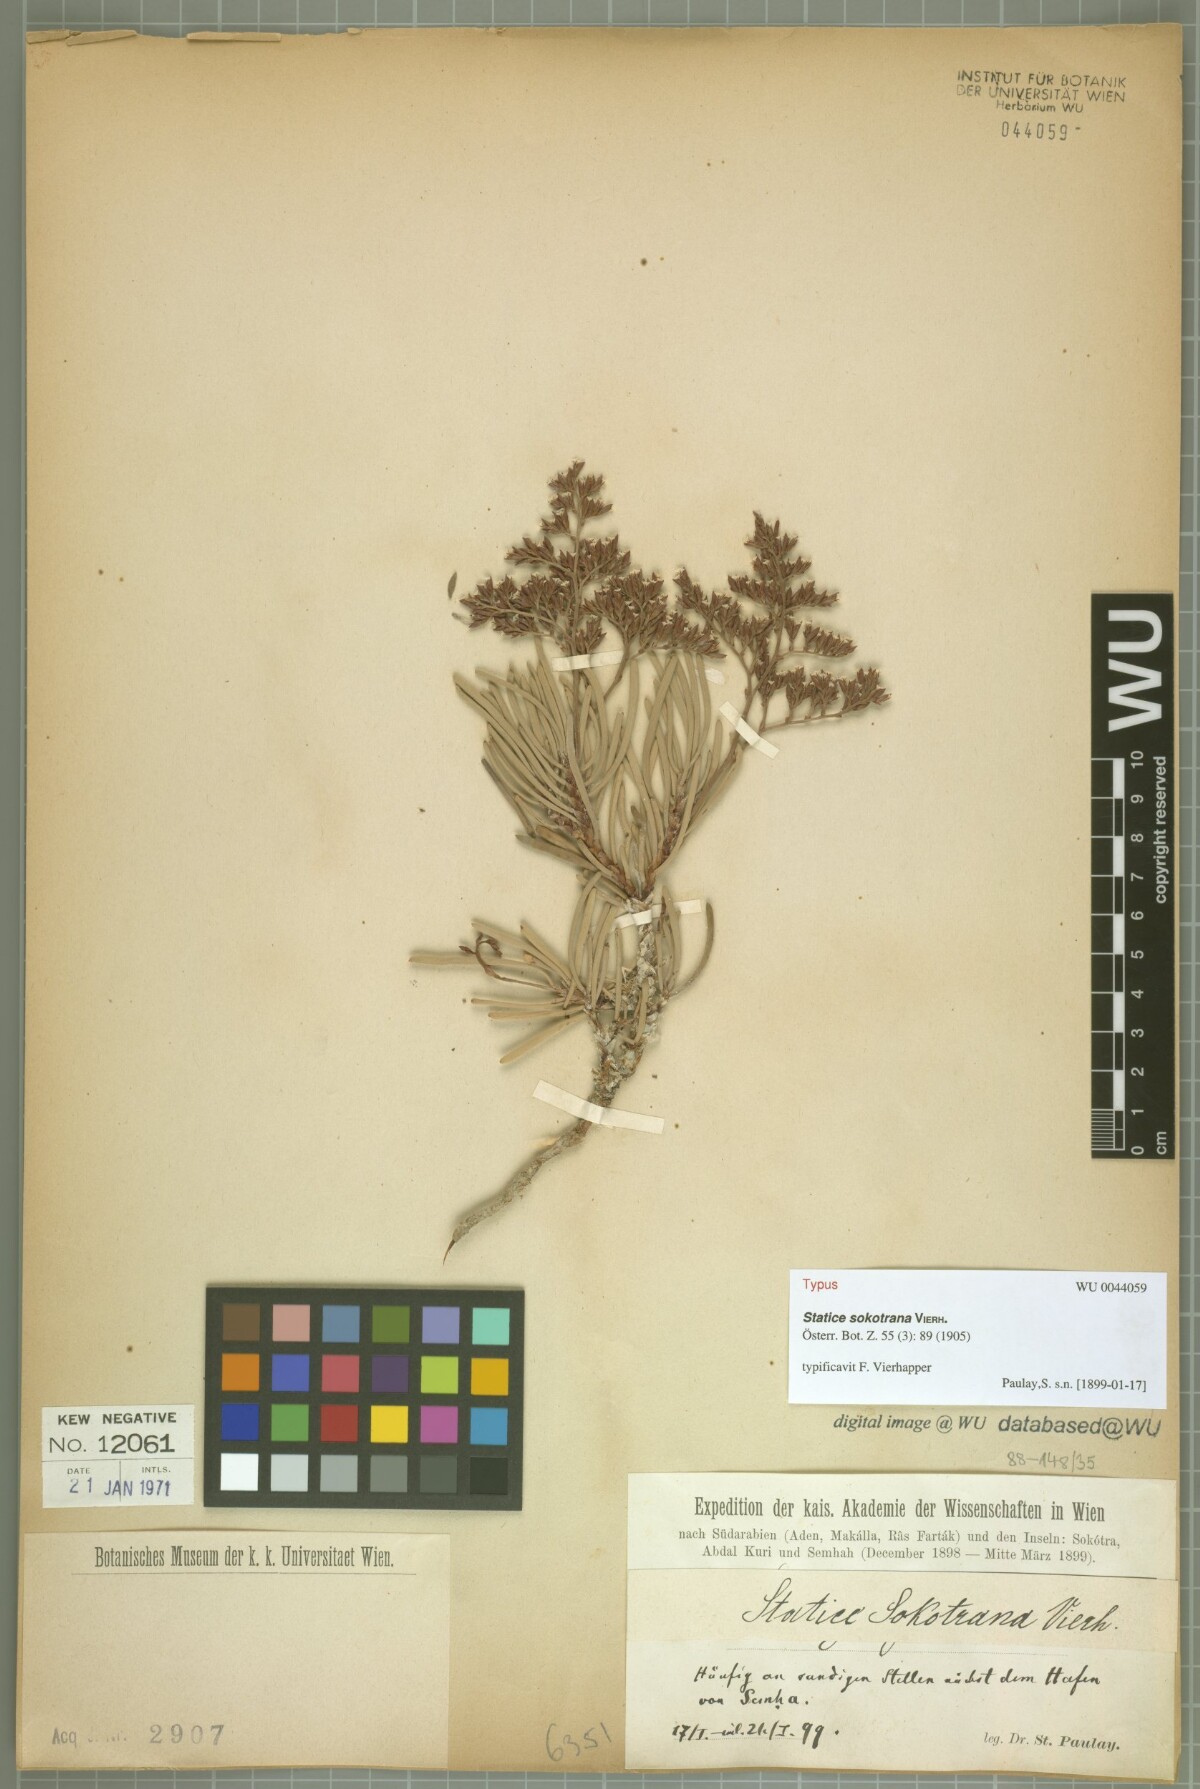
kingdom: Plantae
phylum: Tracheophyta
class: Magnoliopsida
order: Caryophyllales
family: Plumbaginaceae
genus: Limonium
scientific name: Limonium sokotranum
